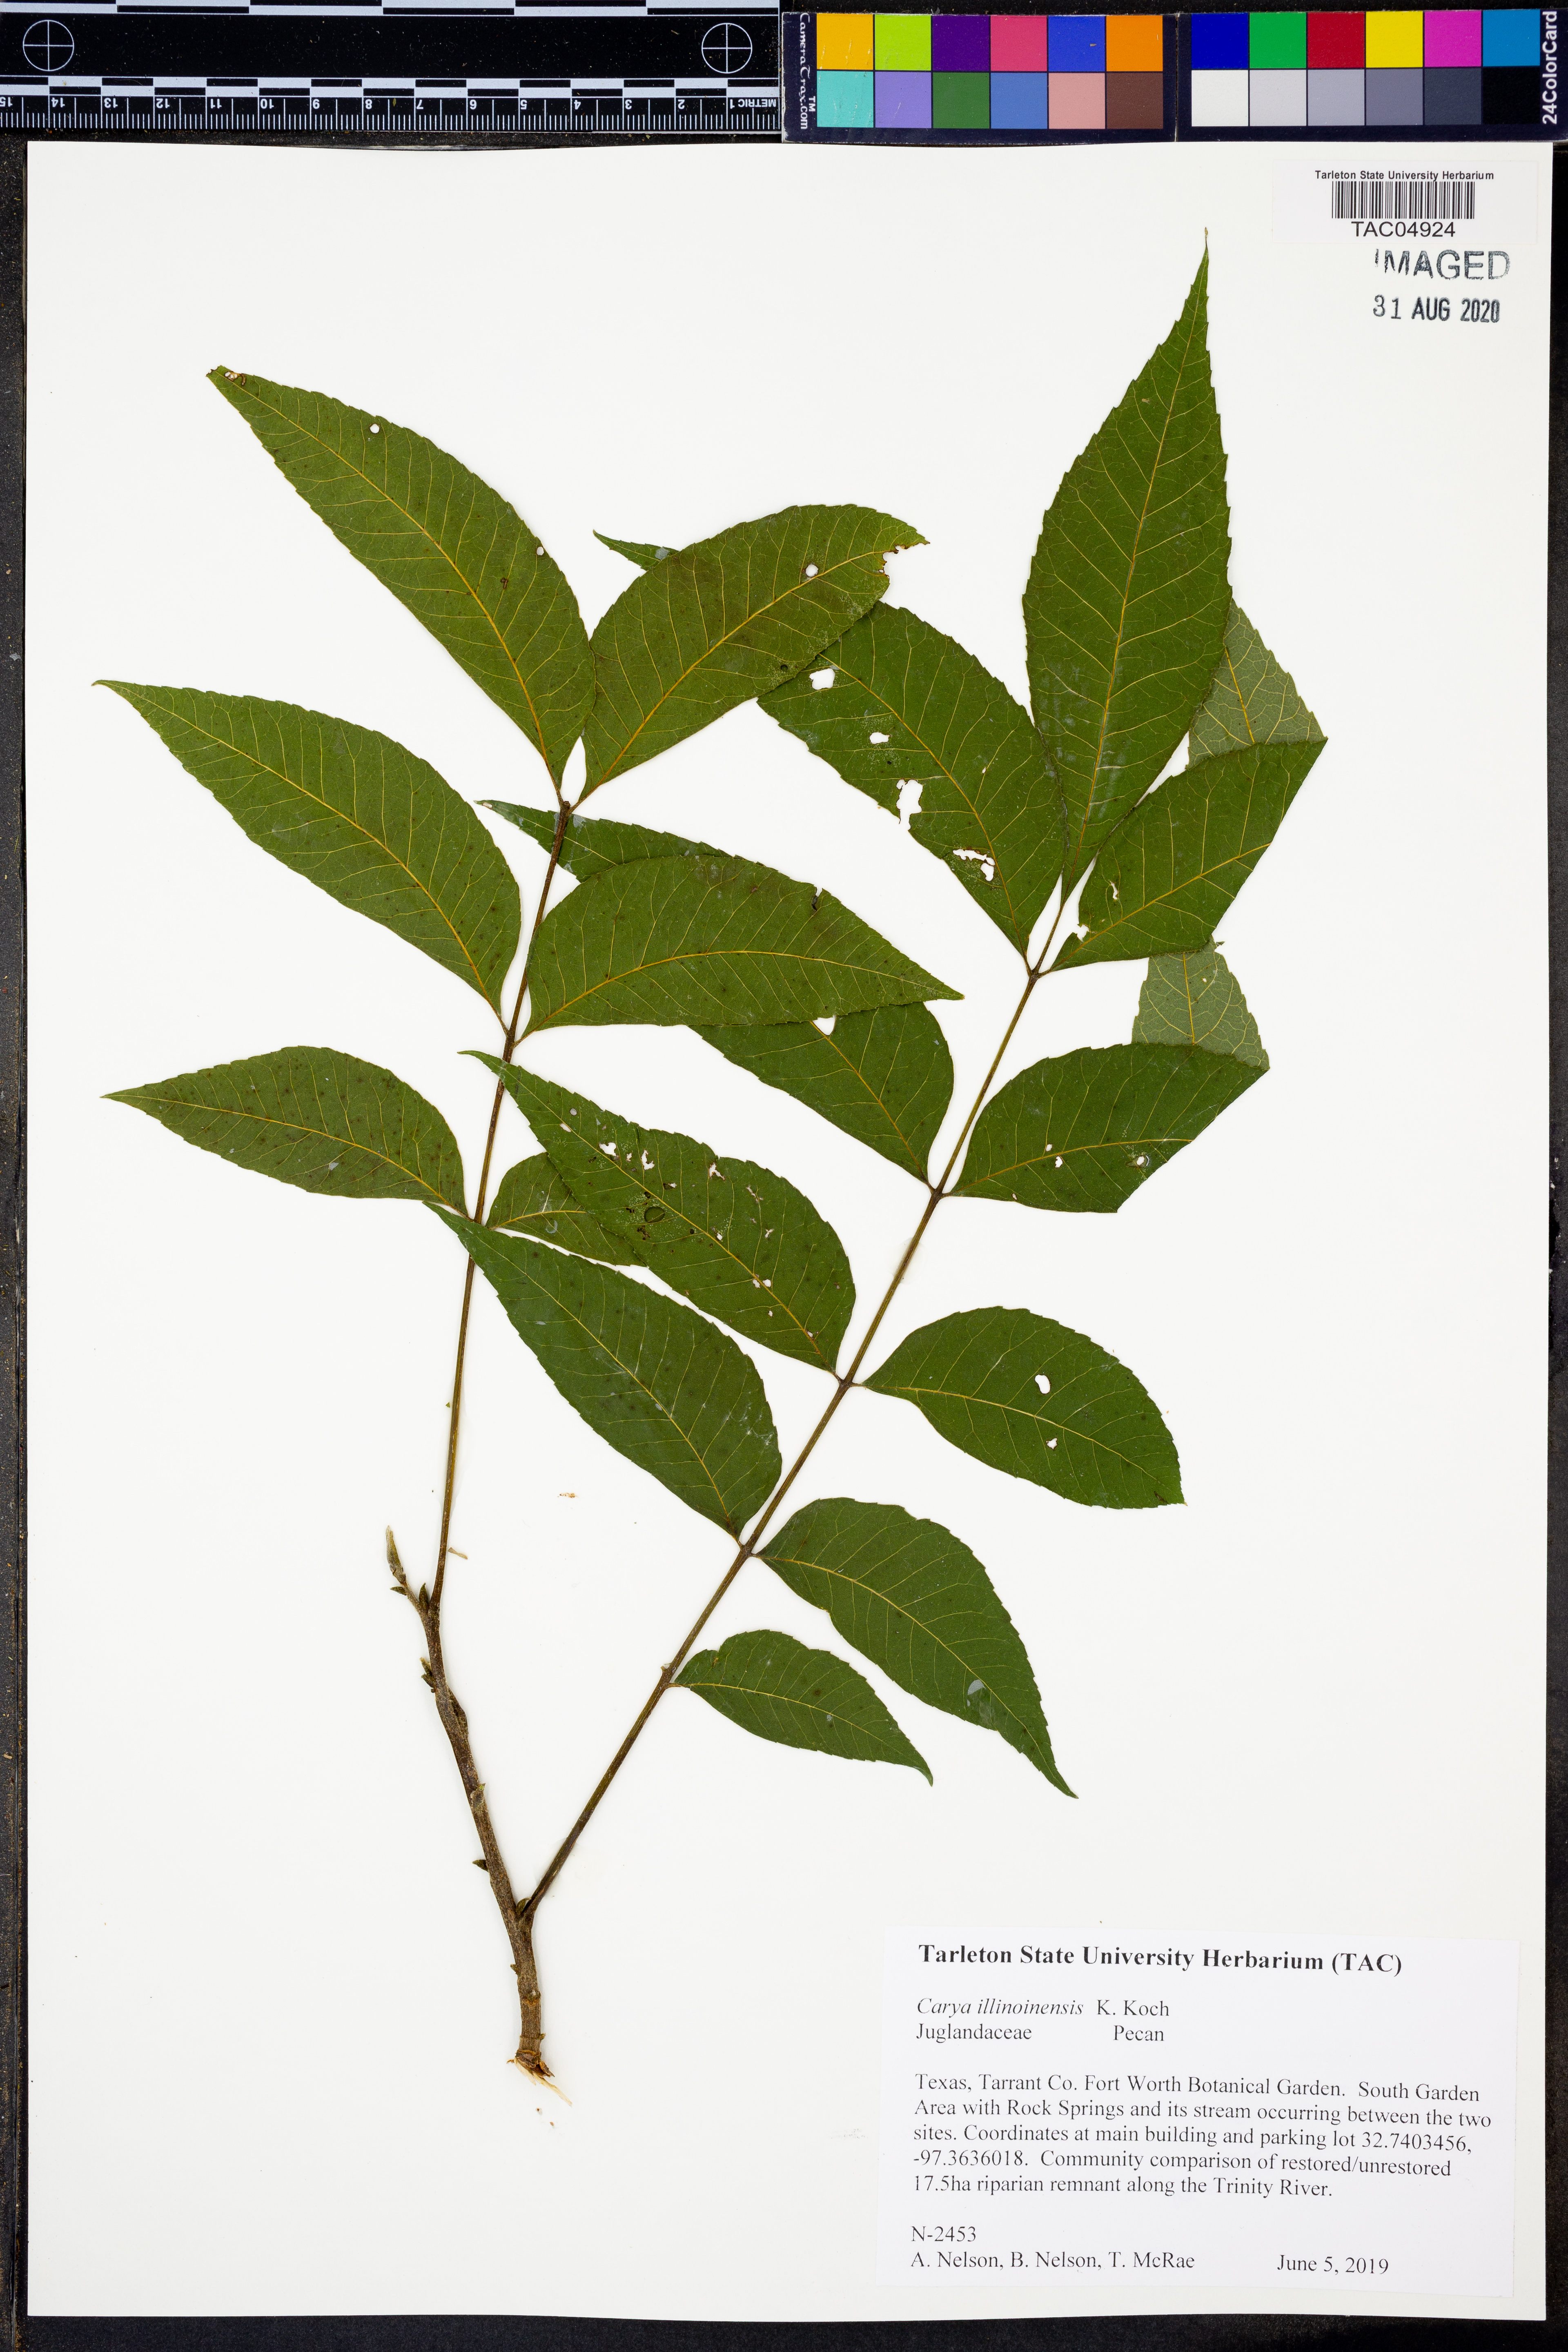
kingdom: Plantae
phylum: Tracheophyta
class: Magnoliopsida
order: Fagales
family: Juglandaceae
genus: Carya
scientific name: Carya illinoinensis
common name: Pecan
